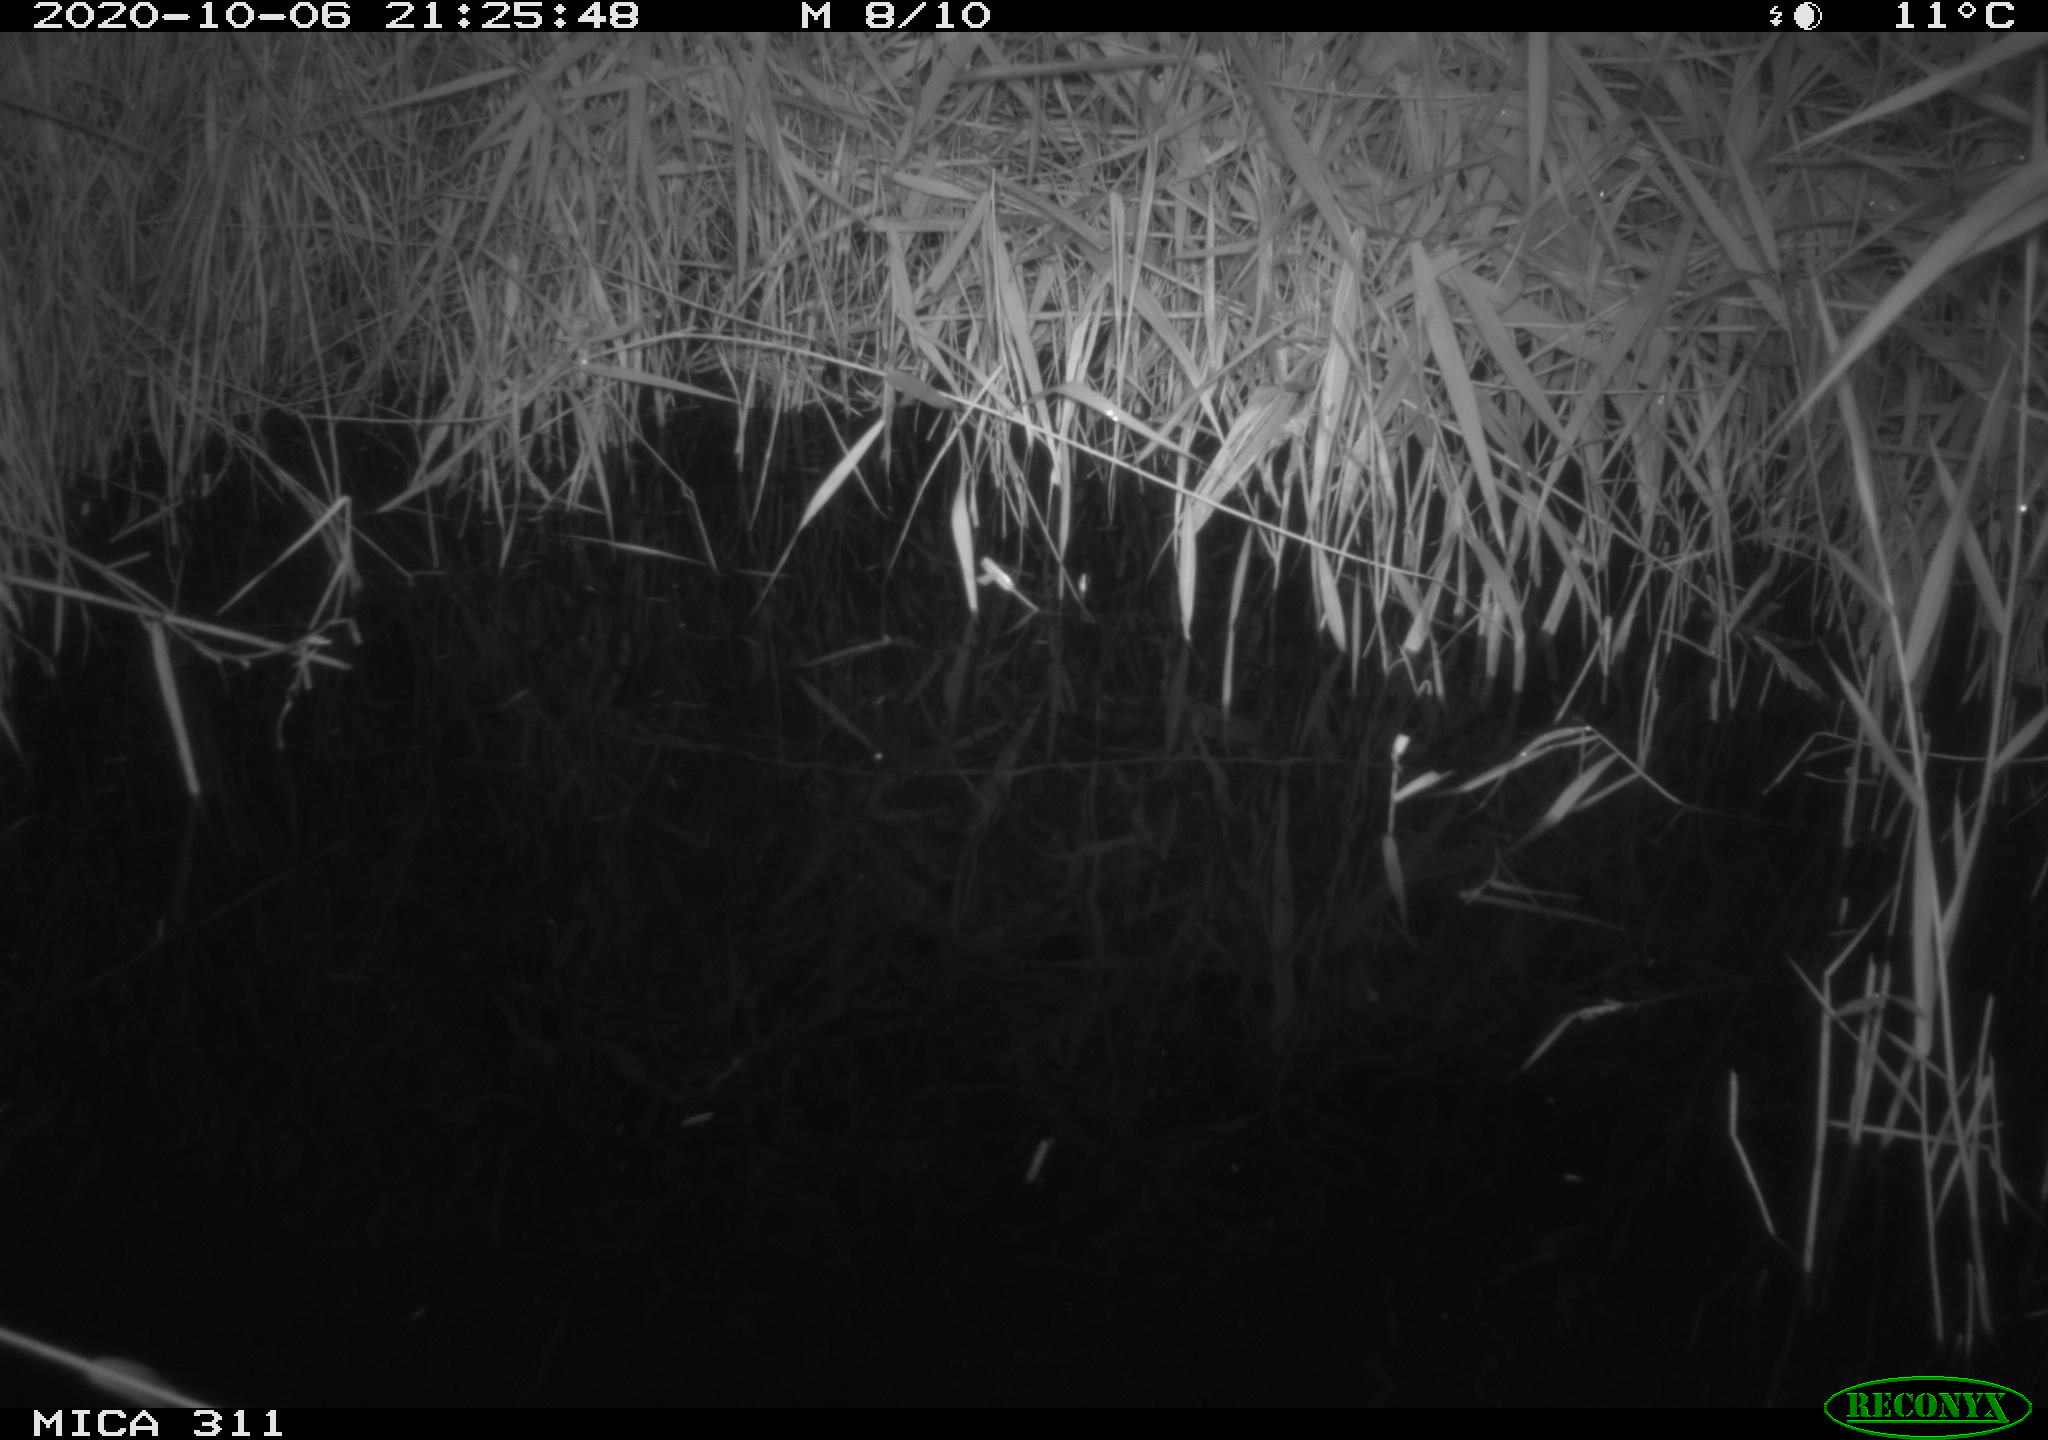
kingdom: Animalia
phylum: Chordata
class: Mammalia
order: Rodentia
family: Muridae
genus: Rattus
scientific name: Rattus norvegicus
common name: Brown rat
